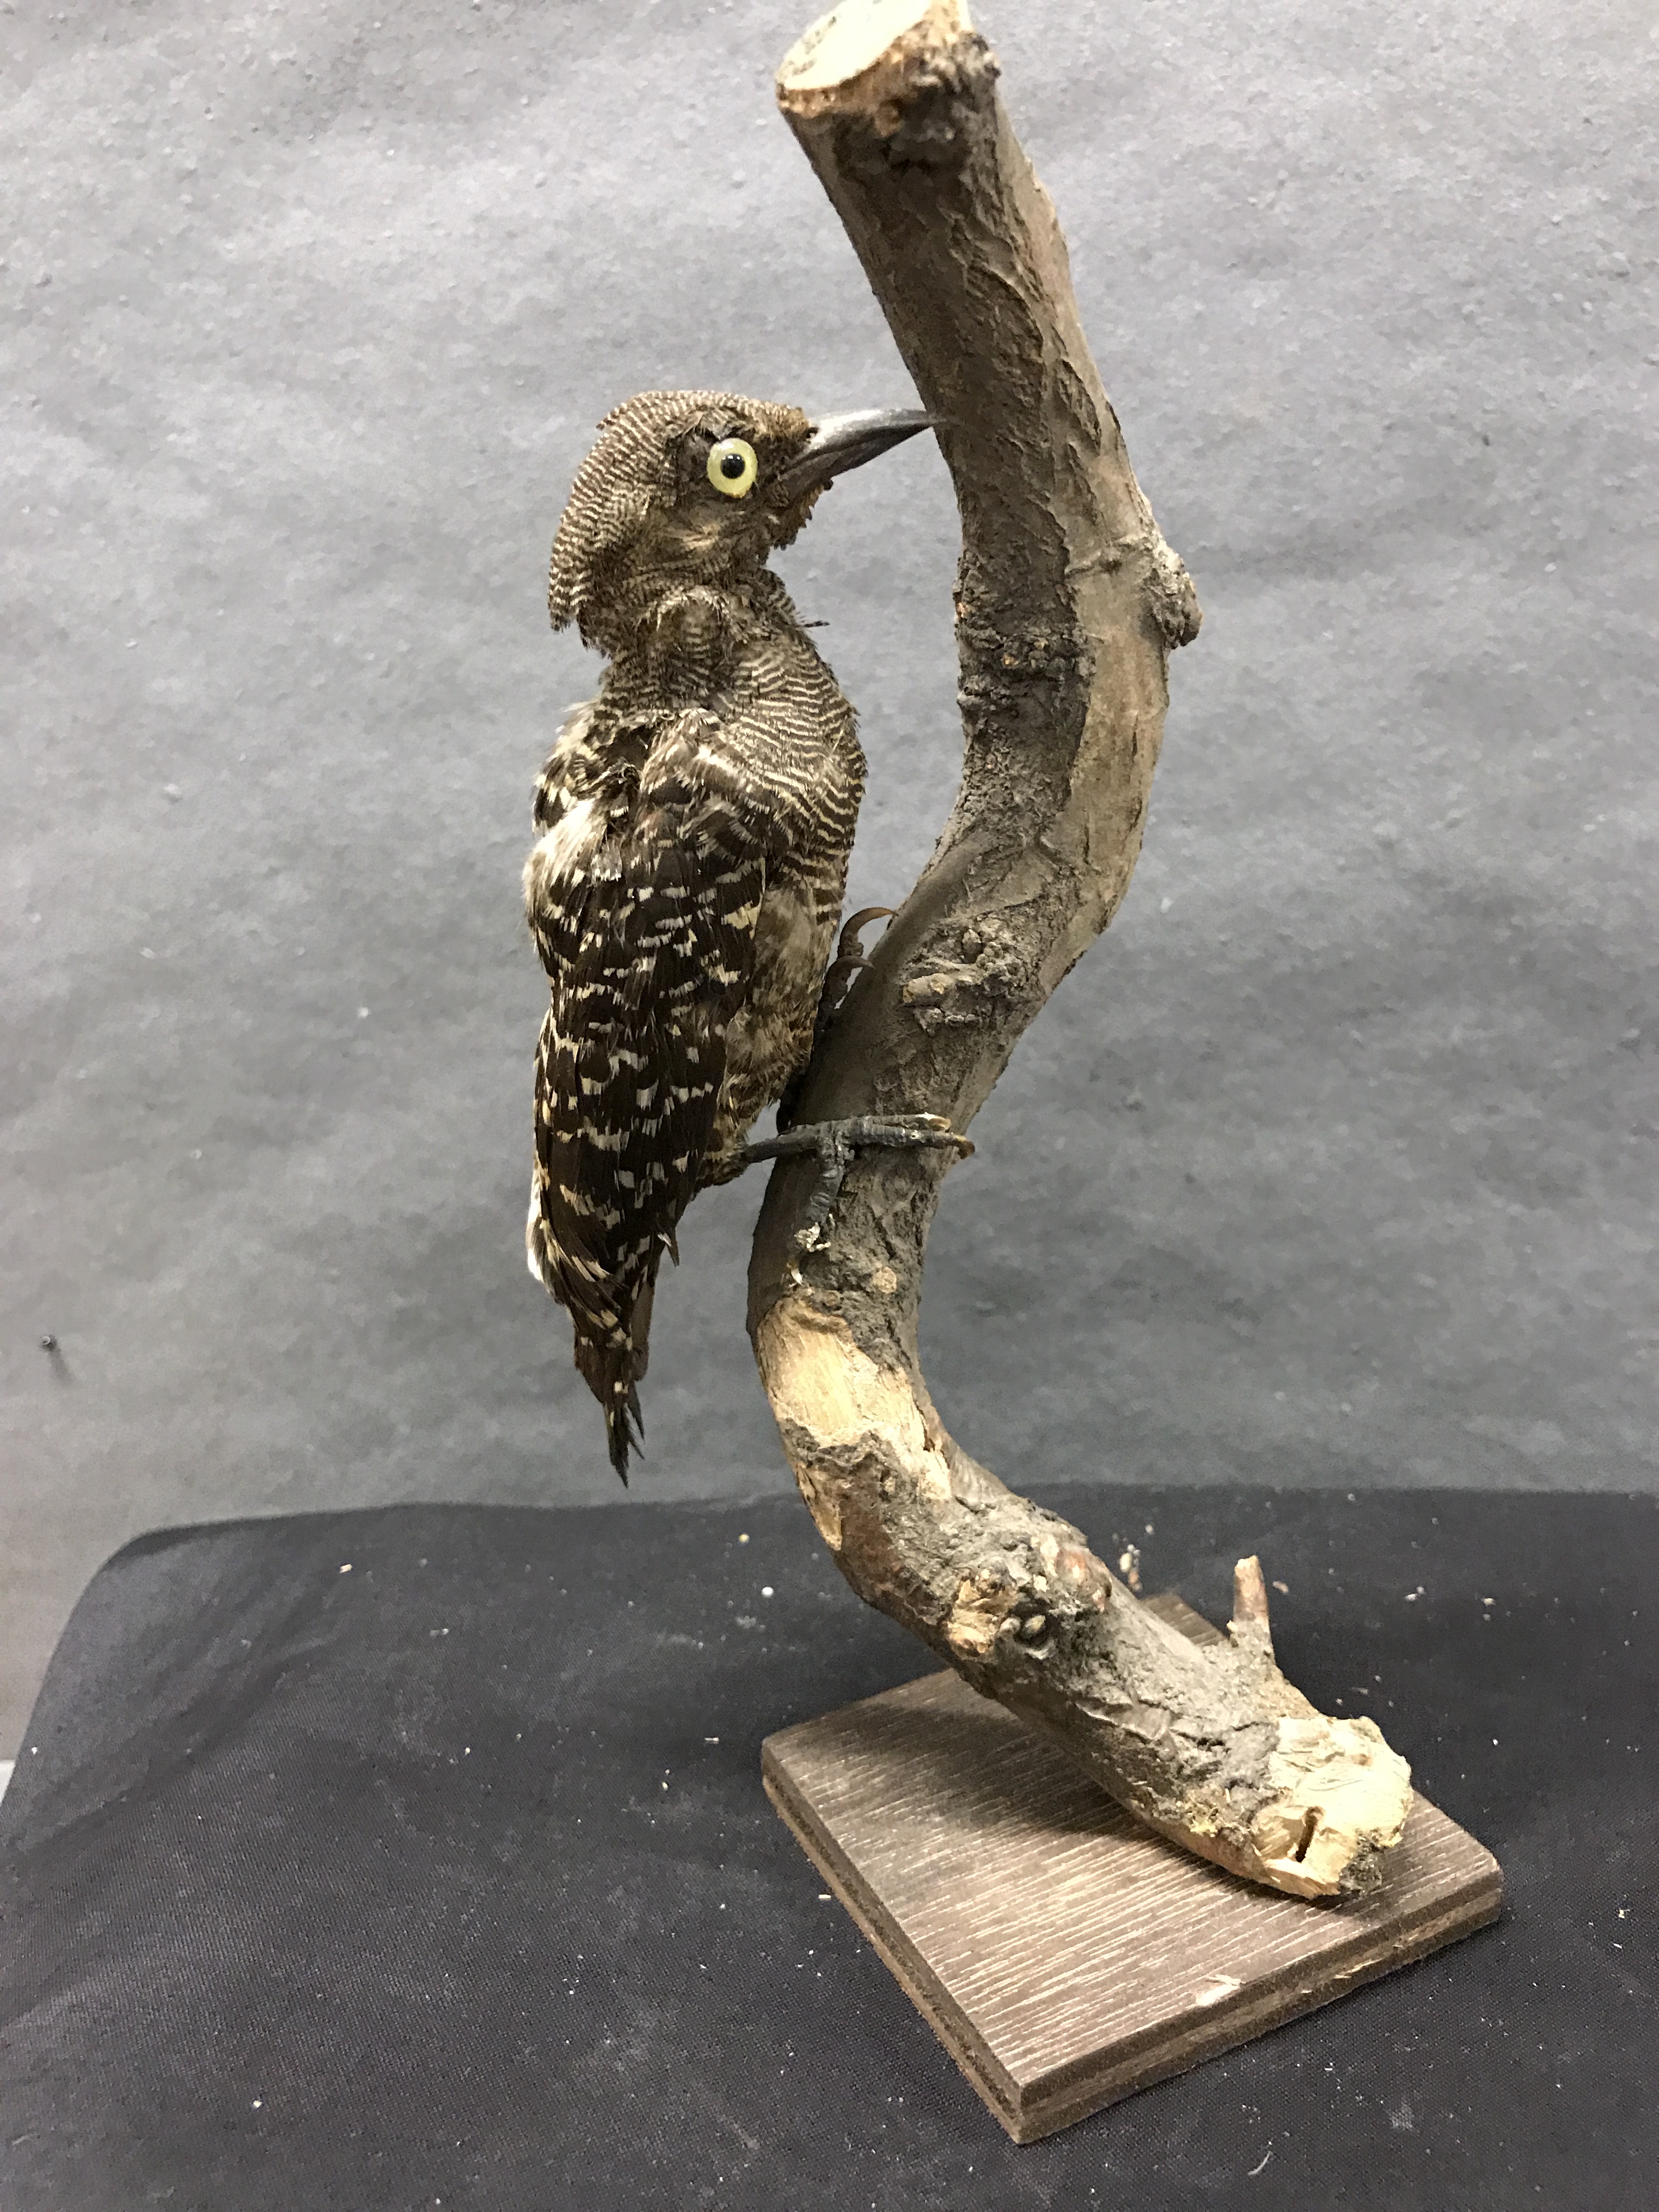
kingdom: Animalia
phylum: Chordata
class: Aves
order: Piciformes
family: Picidae
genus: Meiglyptes
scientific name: Meiglyptes tristis
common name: Buff-rumped woodpecker
